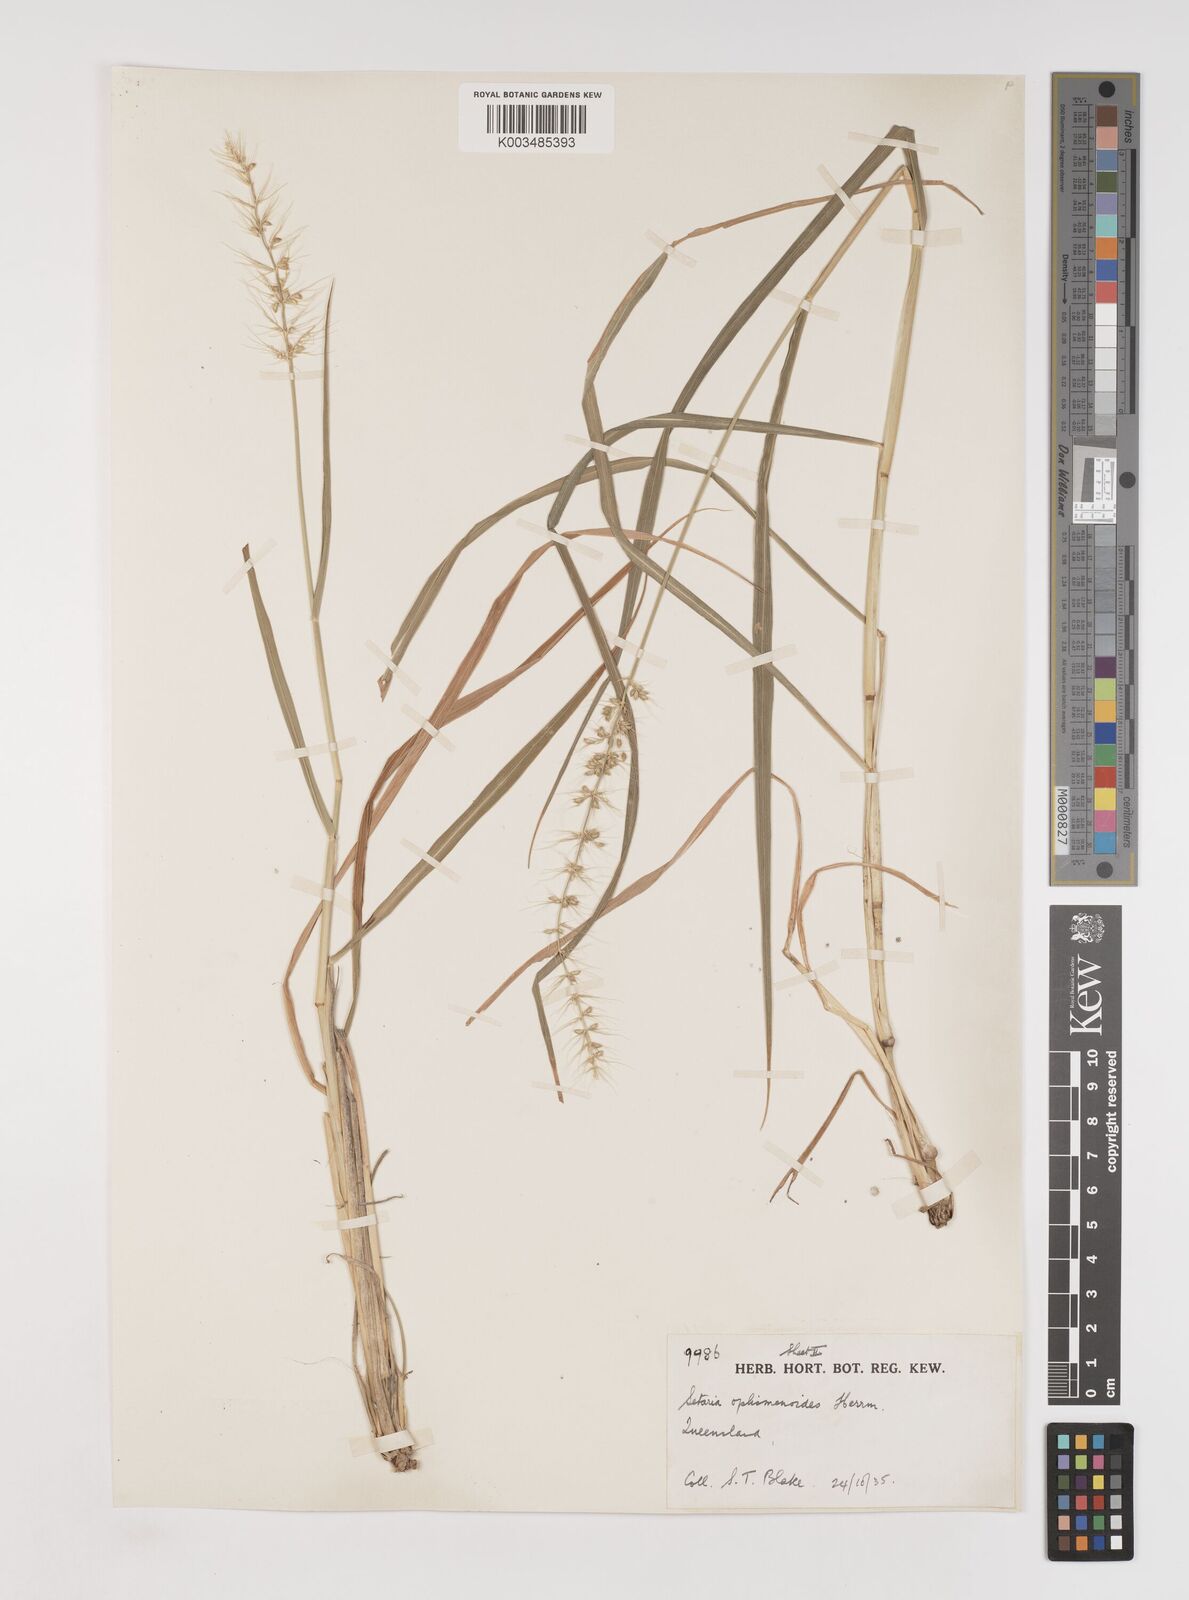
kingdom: Plantae
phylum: Tracheophyta
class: Liliopsida
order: Poales
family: Poaceae
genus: Setaria
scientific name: Setaria oplismenoides
